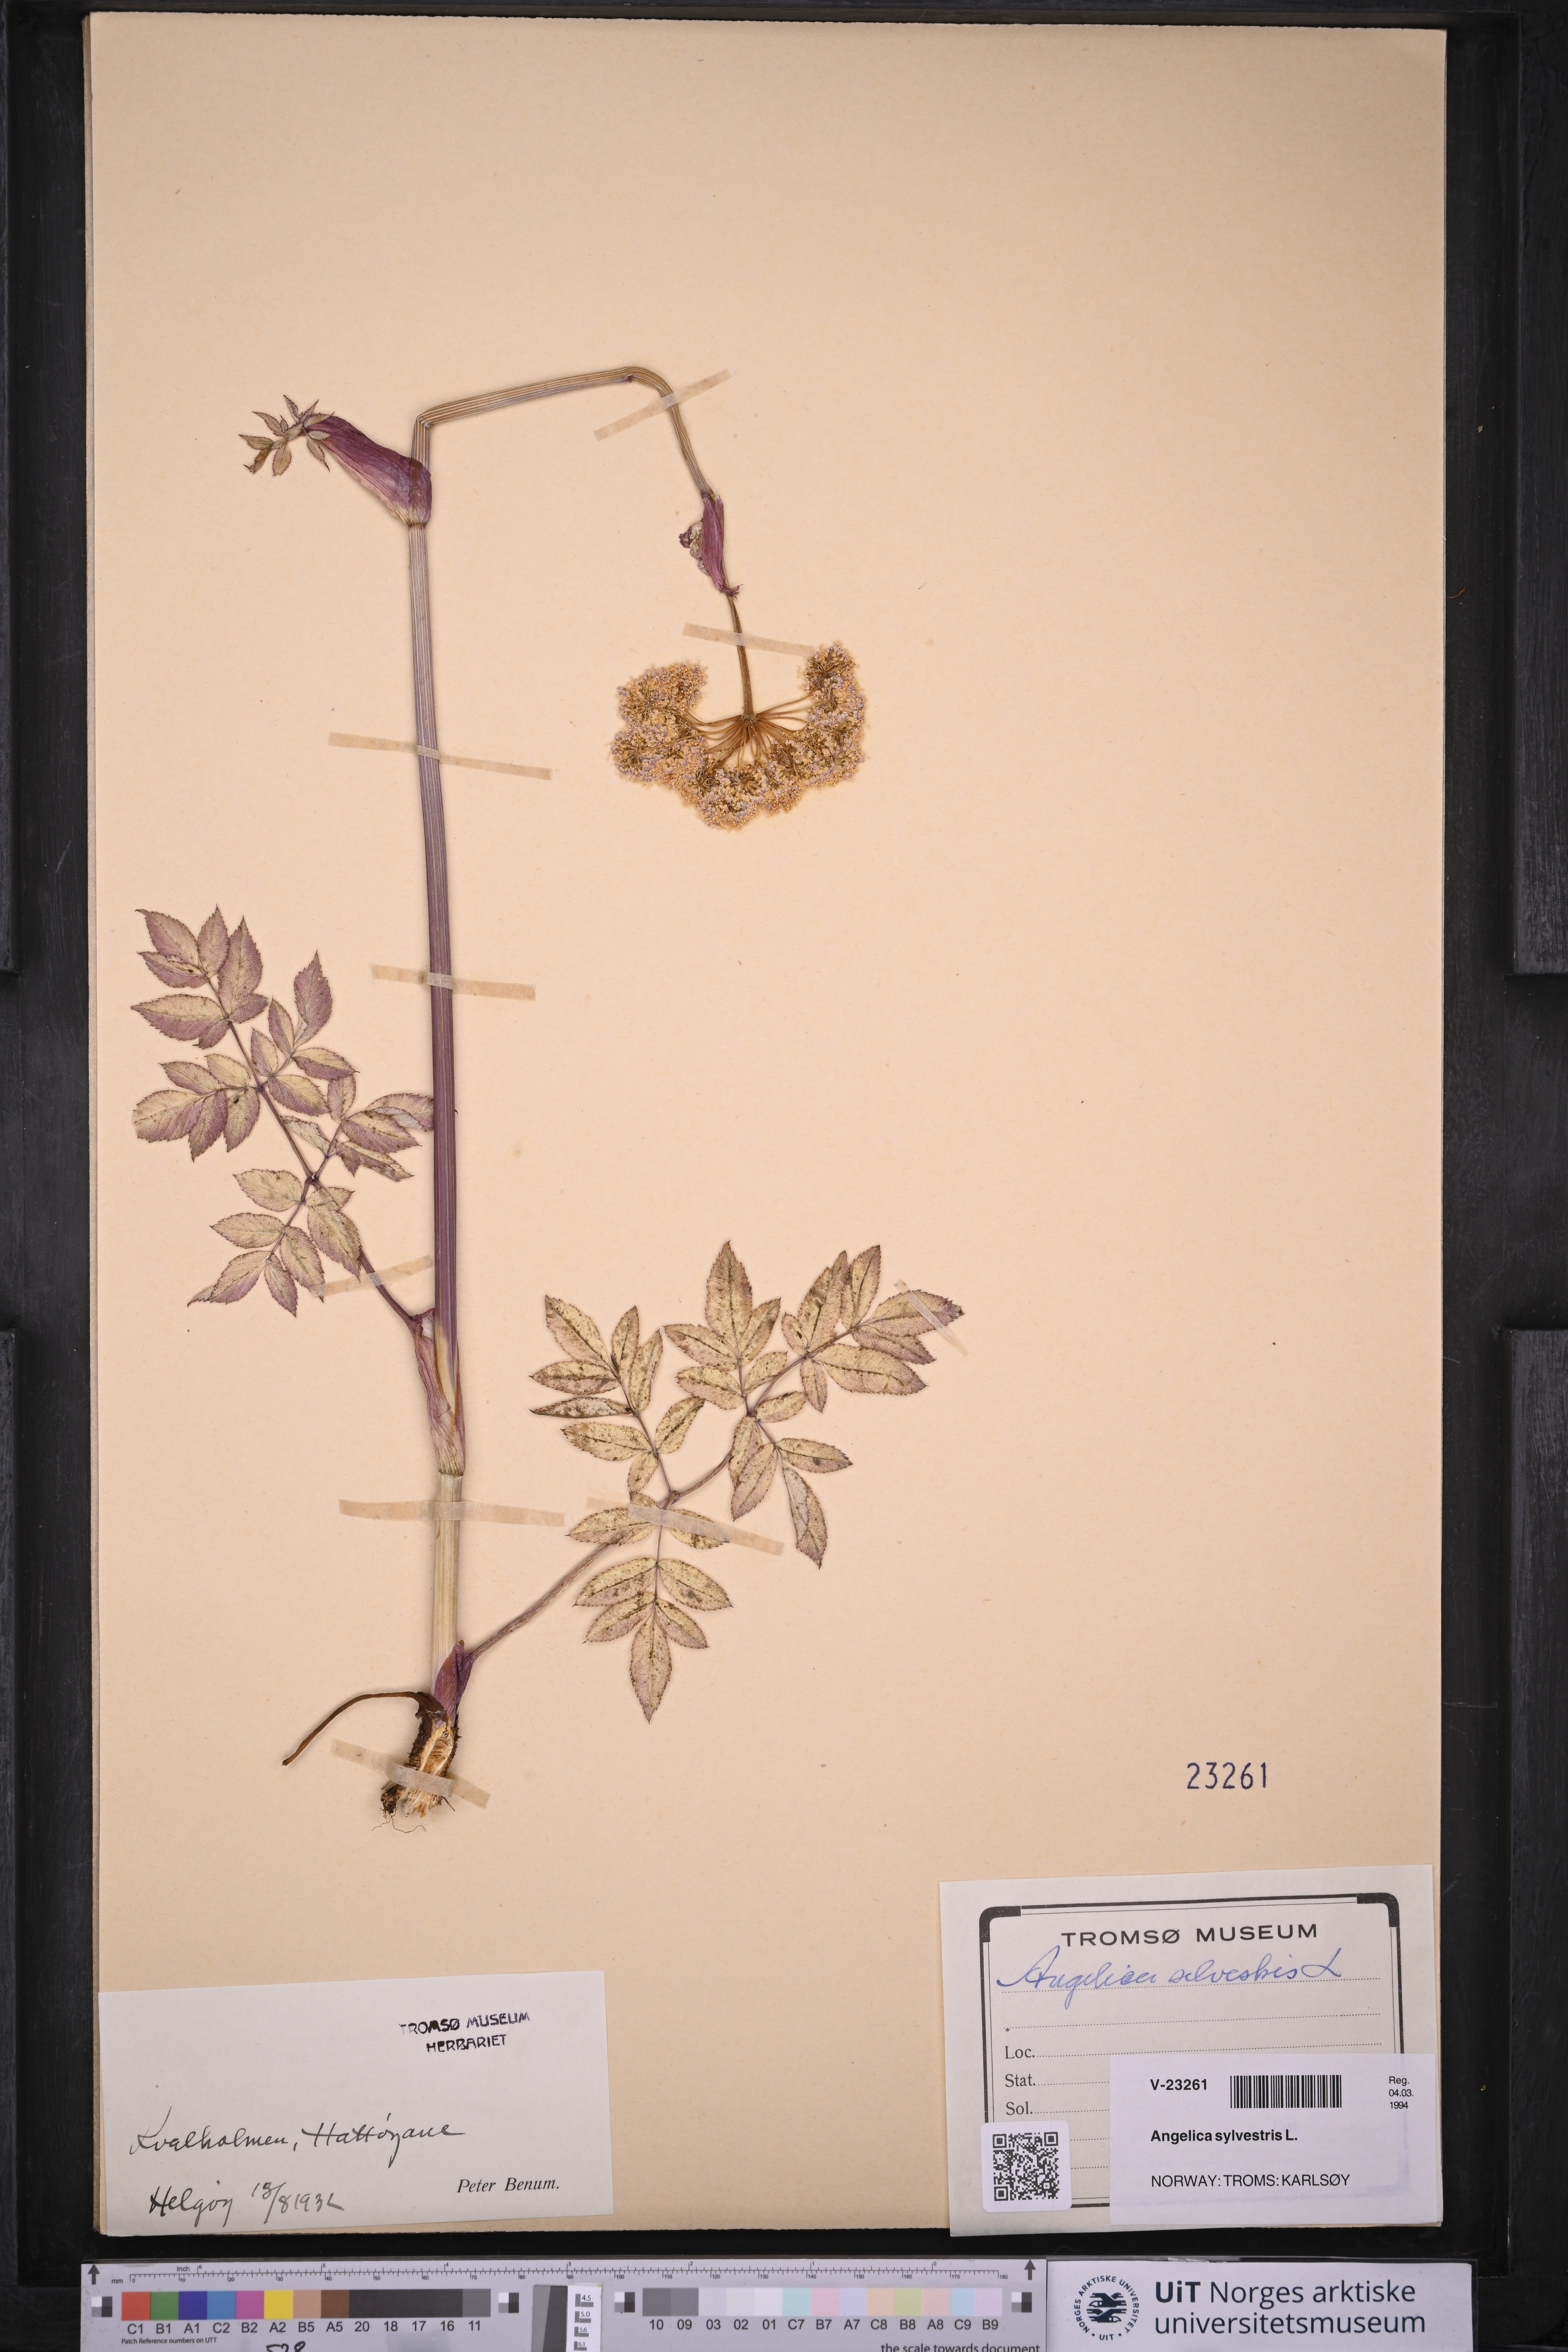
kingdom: Plantae
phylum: Tracheophyta
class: Magnoliopsida
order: Apiales
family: Apiaceae
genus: Angelica
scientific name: Angelica sylvestris
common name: Wild angelica
